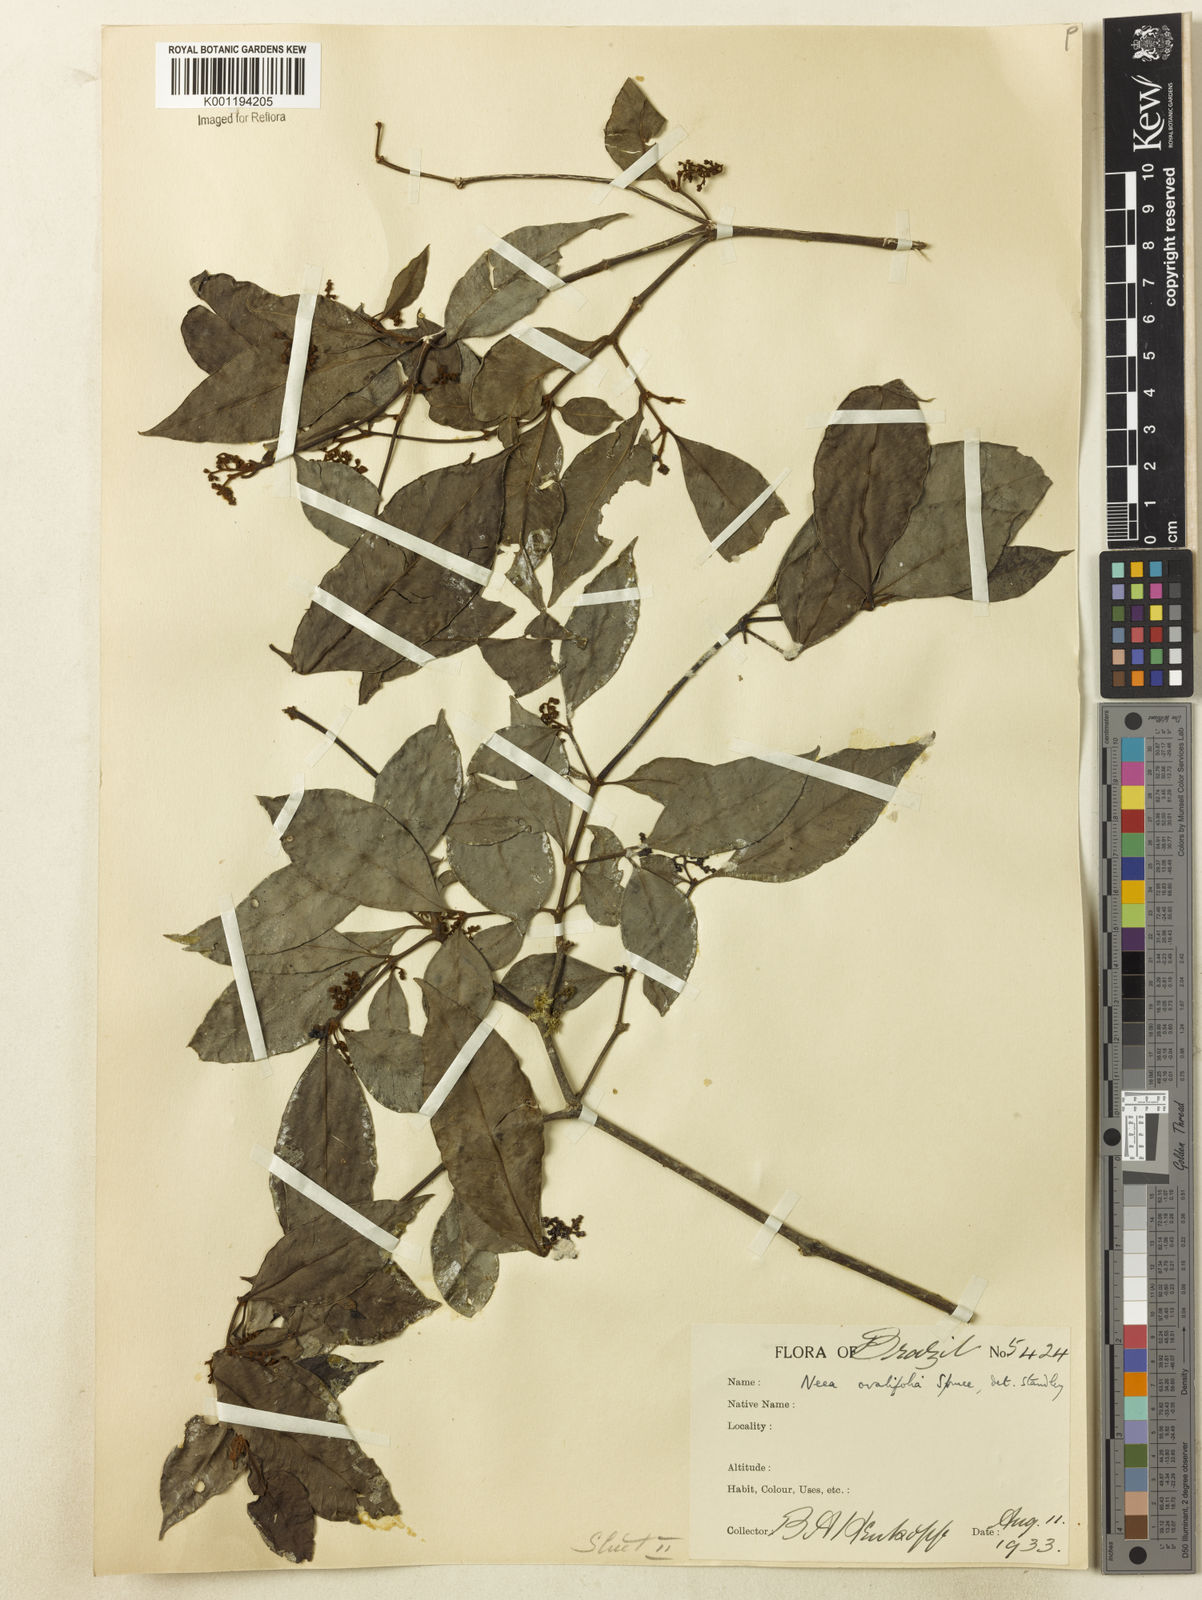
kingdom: Plantae
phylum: Tracheophyta
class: Magnoliopsida
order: Caryophyllales
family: Nyctaginaceae
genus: Neea
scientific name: Neea ovalifolia
